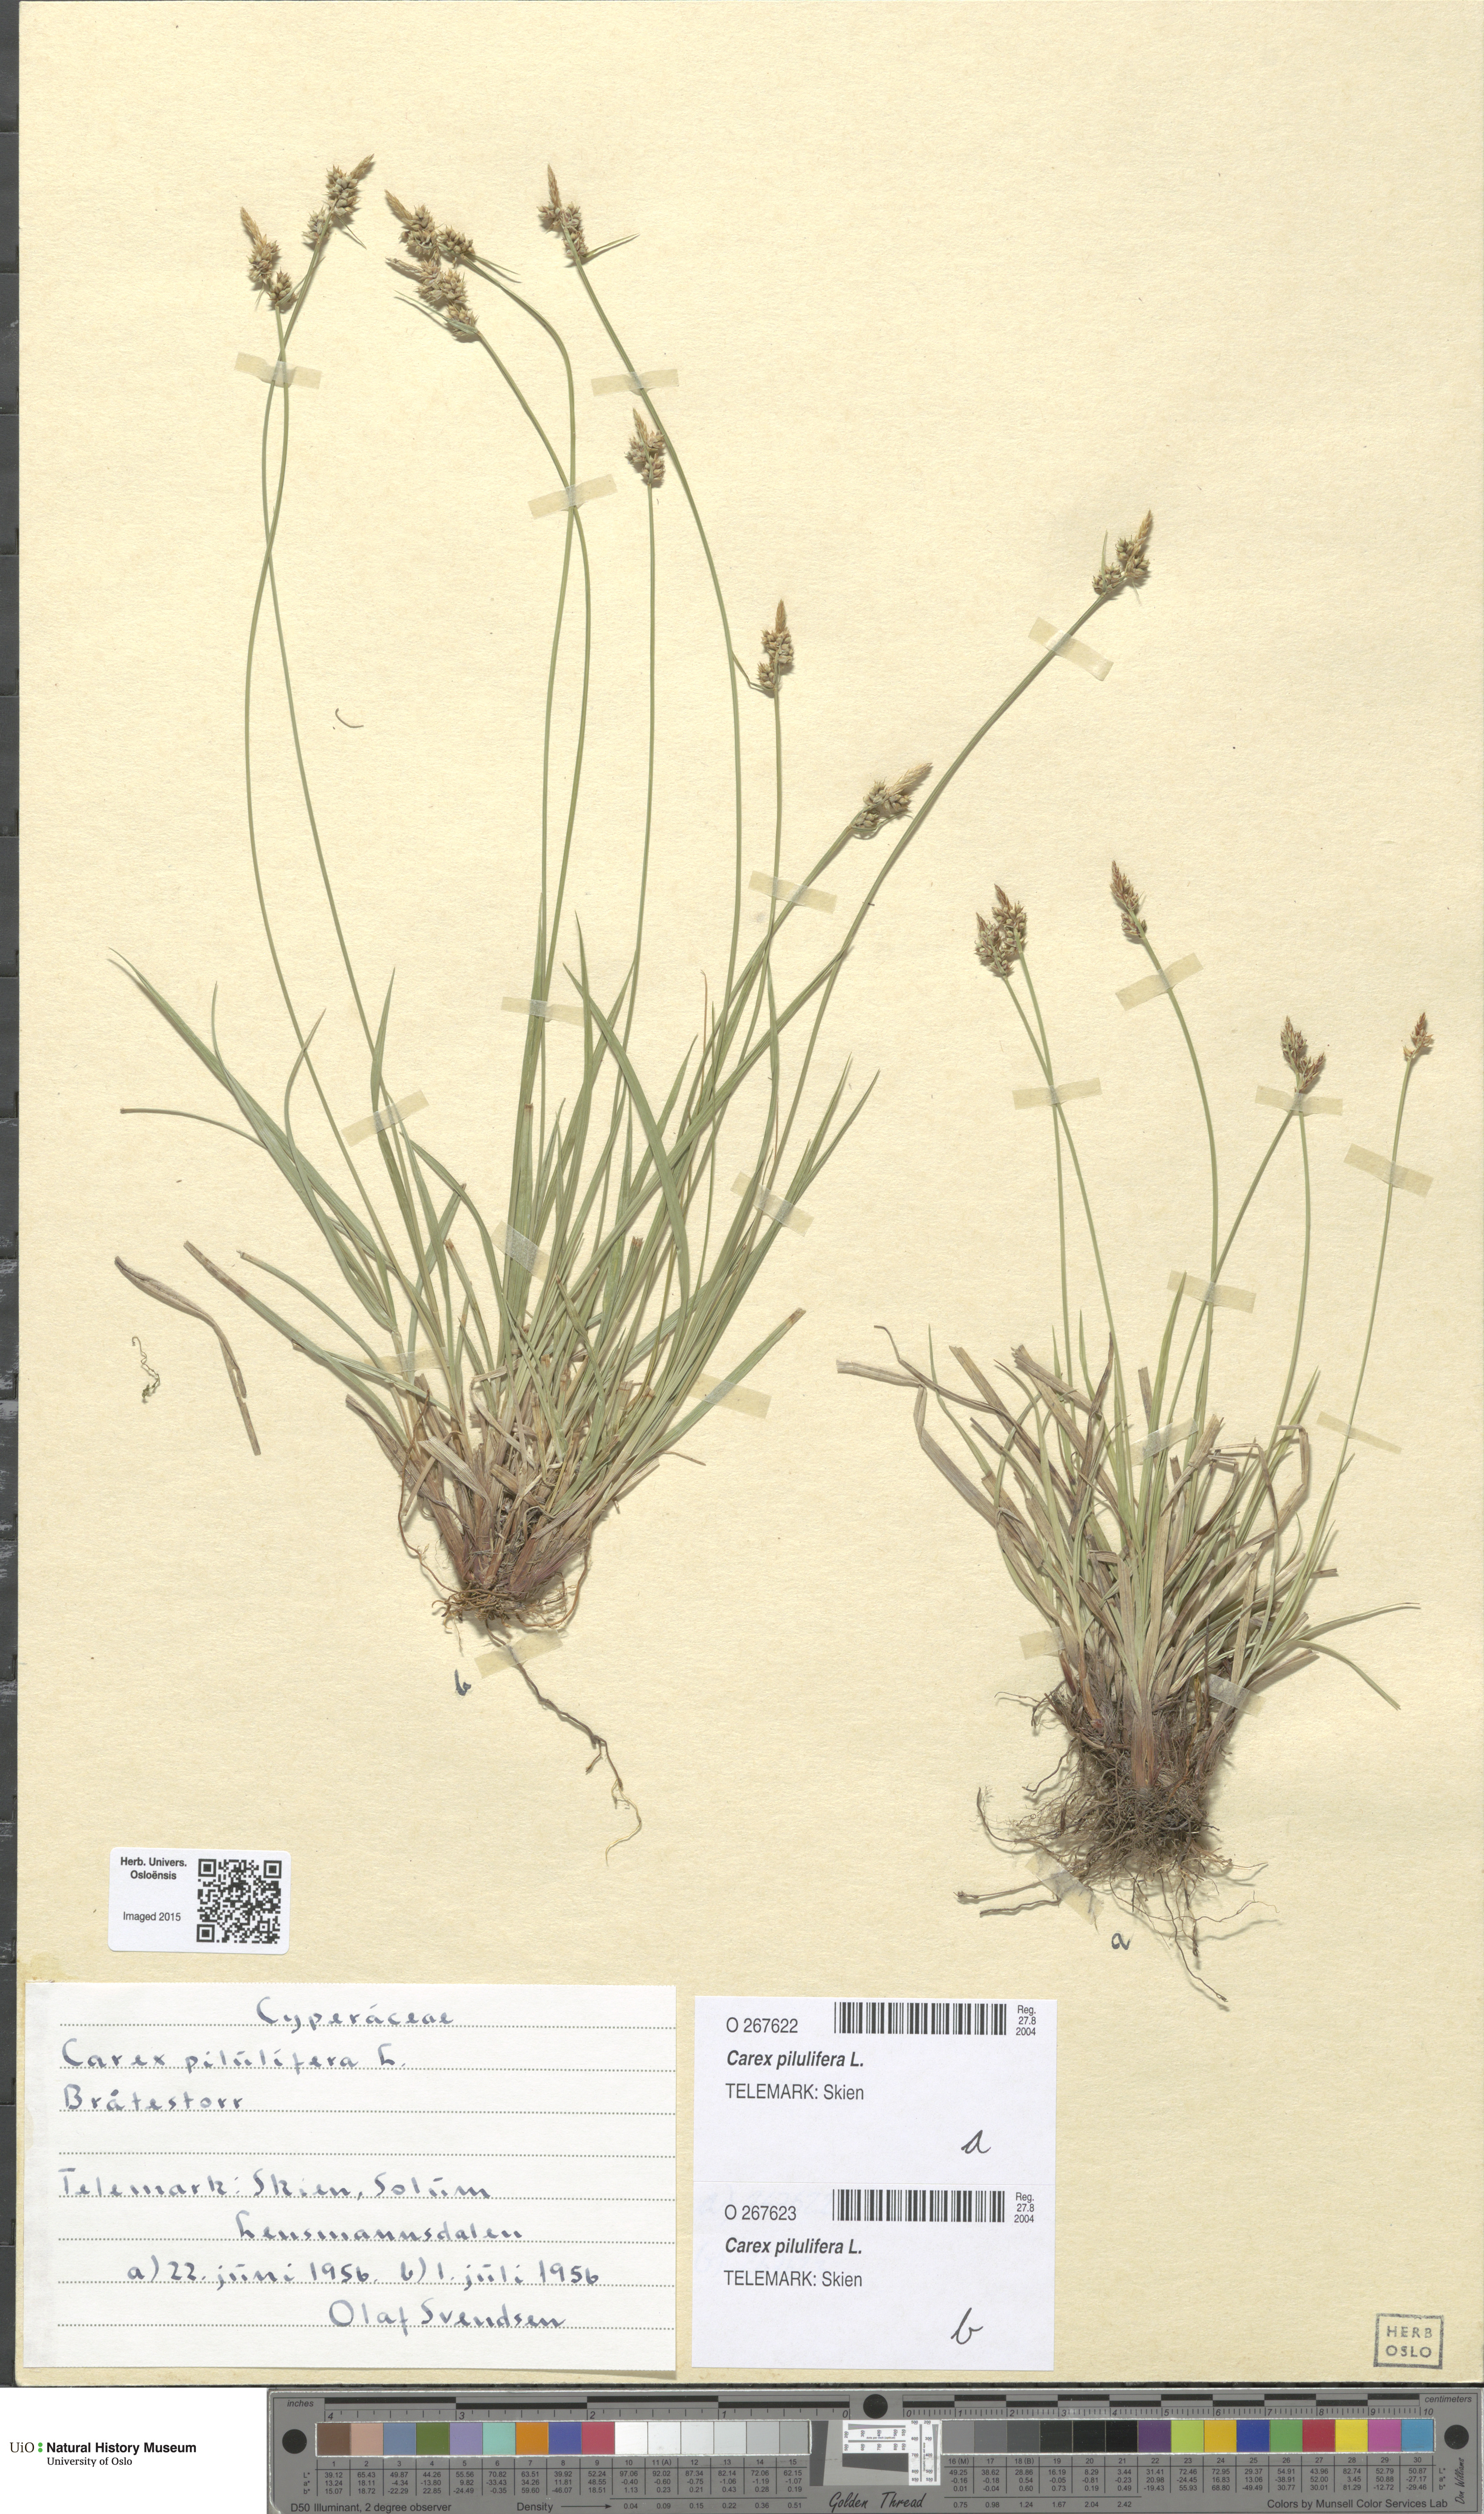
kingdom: Plantae
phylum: Tracheophyta
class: Liliopsida
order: Poales
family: Cyperaceae
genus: Carex
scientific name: Carex pilulifera
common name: Pill sedge
